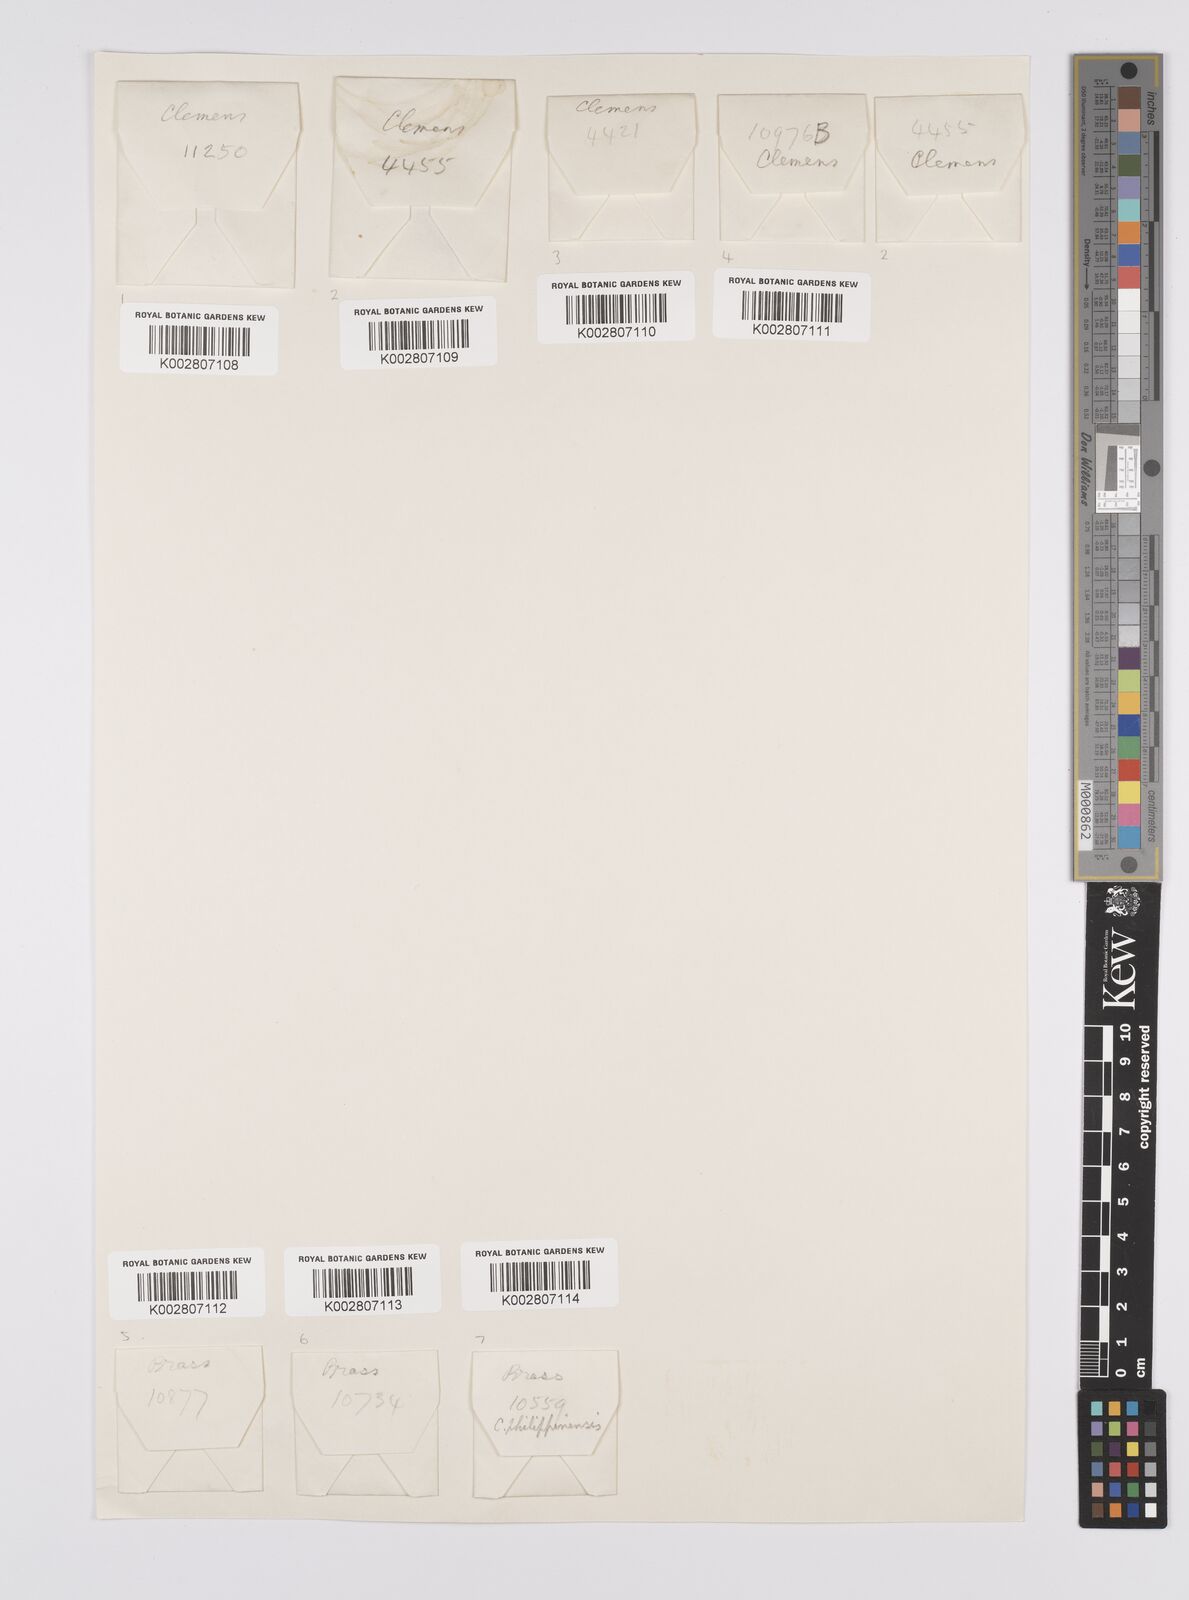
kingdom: Plantae
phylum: Tracheophyta
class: Liliopsida
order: Poales
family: Cyperaceae
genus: Carex
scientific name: Carex graeffeana
